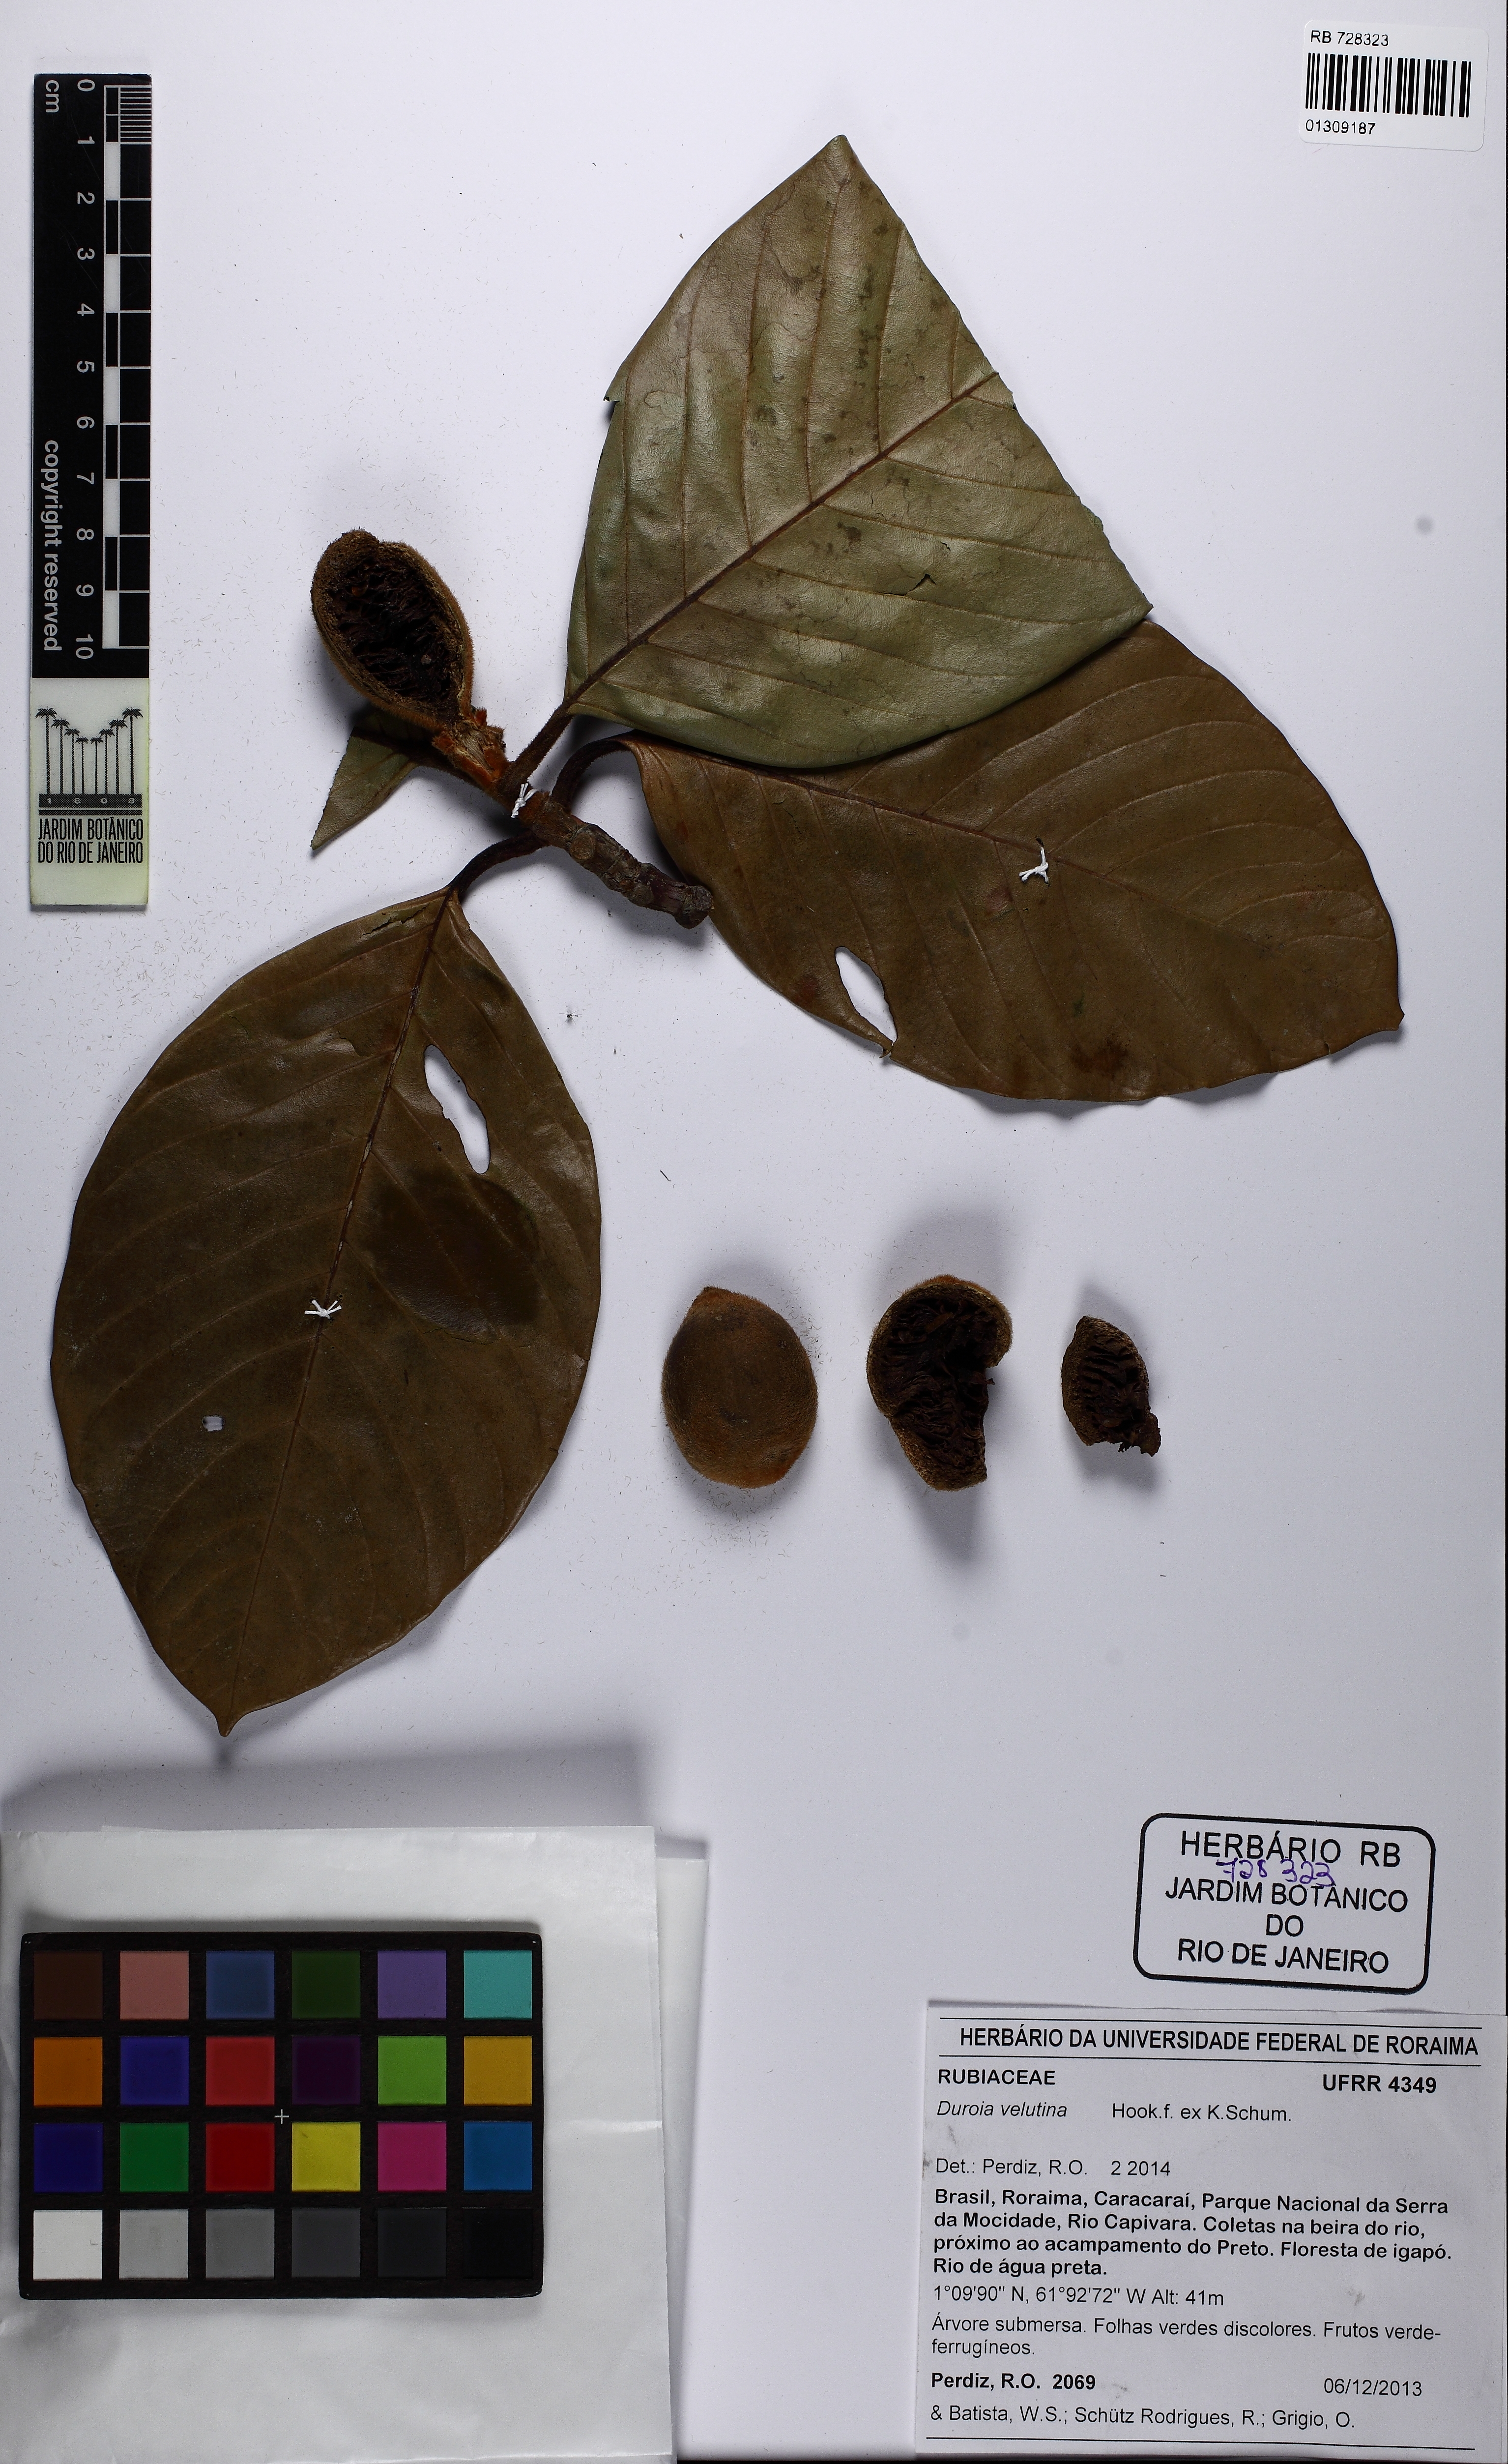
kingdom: Plantae
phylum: Tracheophyta
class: Magnoliopsida
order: Gentianales
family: Rubiaceae
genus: Duroia
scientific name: Duroia velutina
